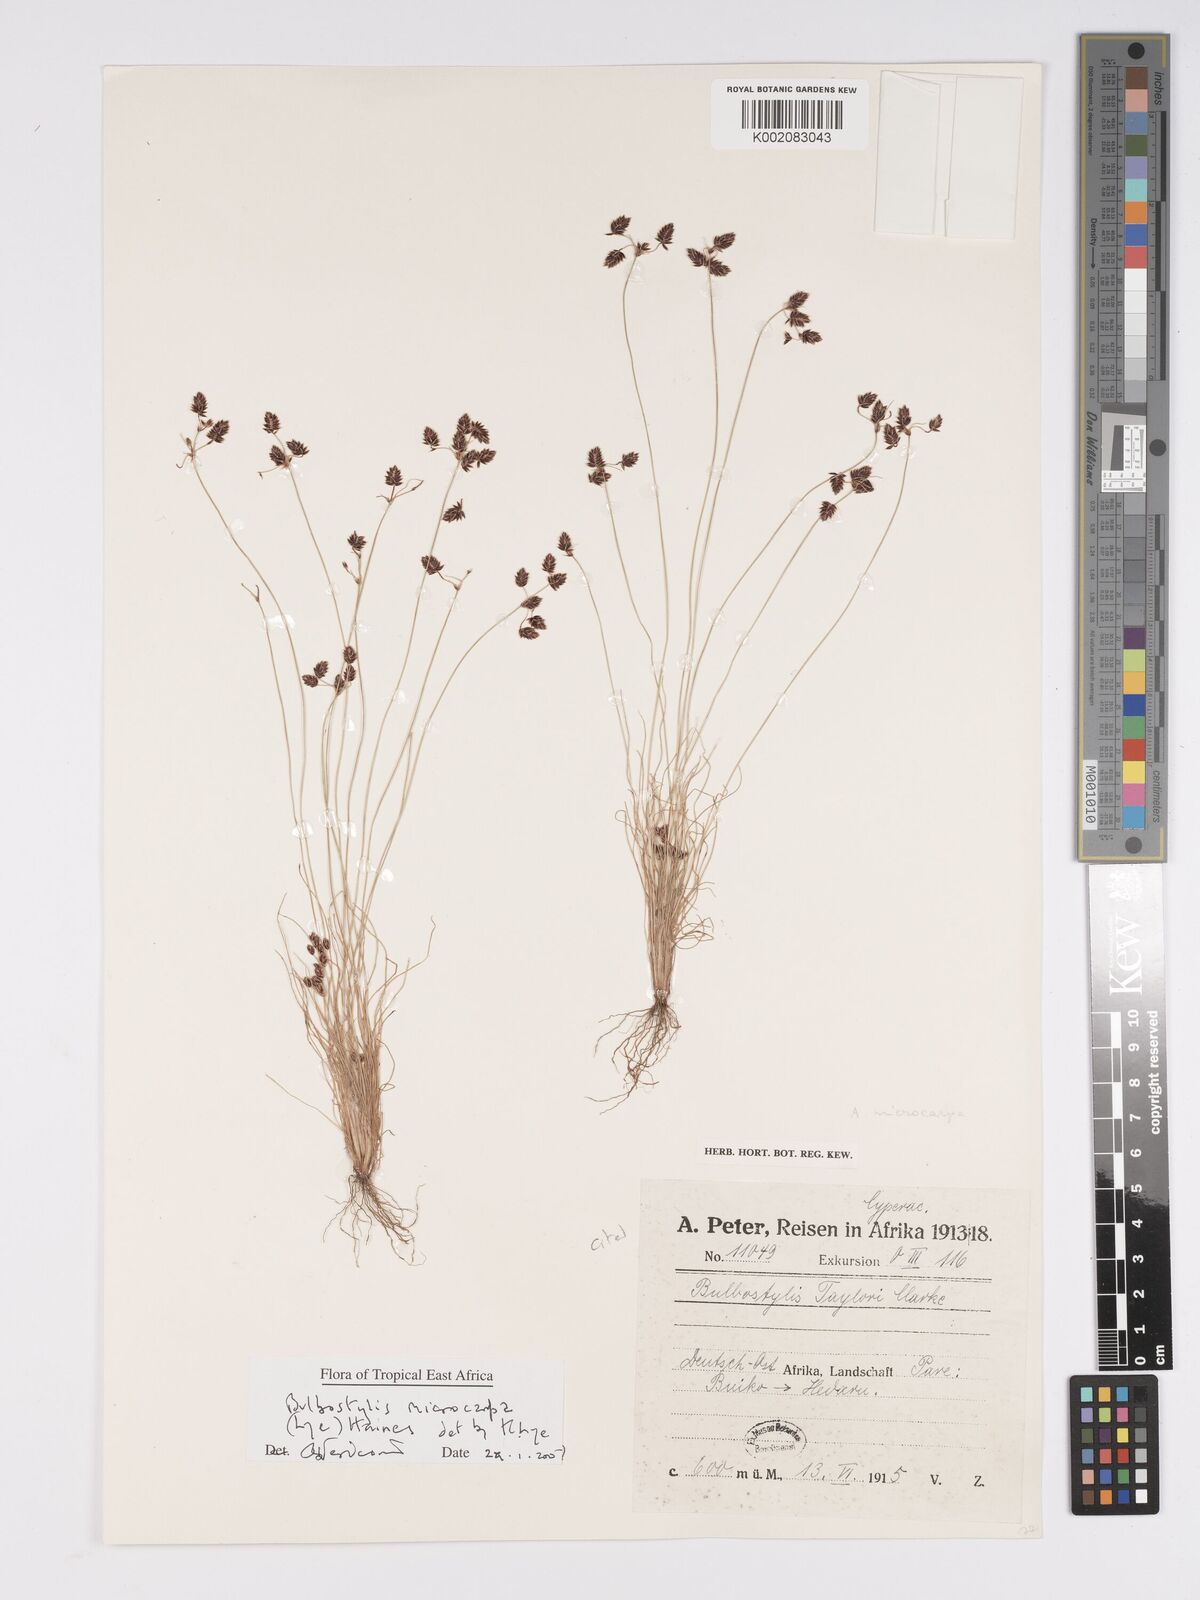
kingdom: Plantae
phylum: Tracheophyta
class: Liliopsida
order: Poales
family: Cyperaceae
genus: Bulbostylis
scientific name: Bulbostylis microcarpa
